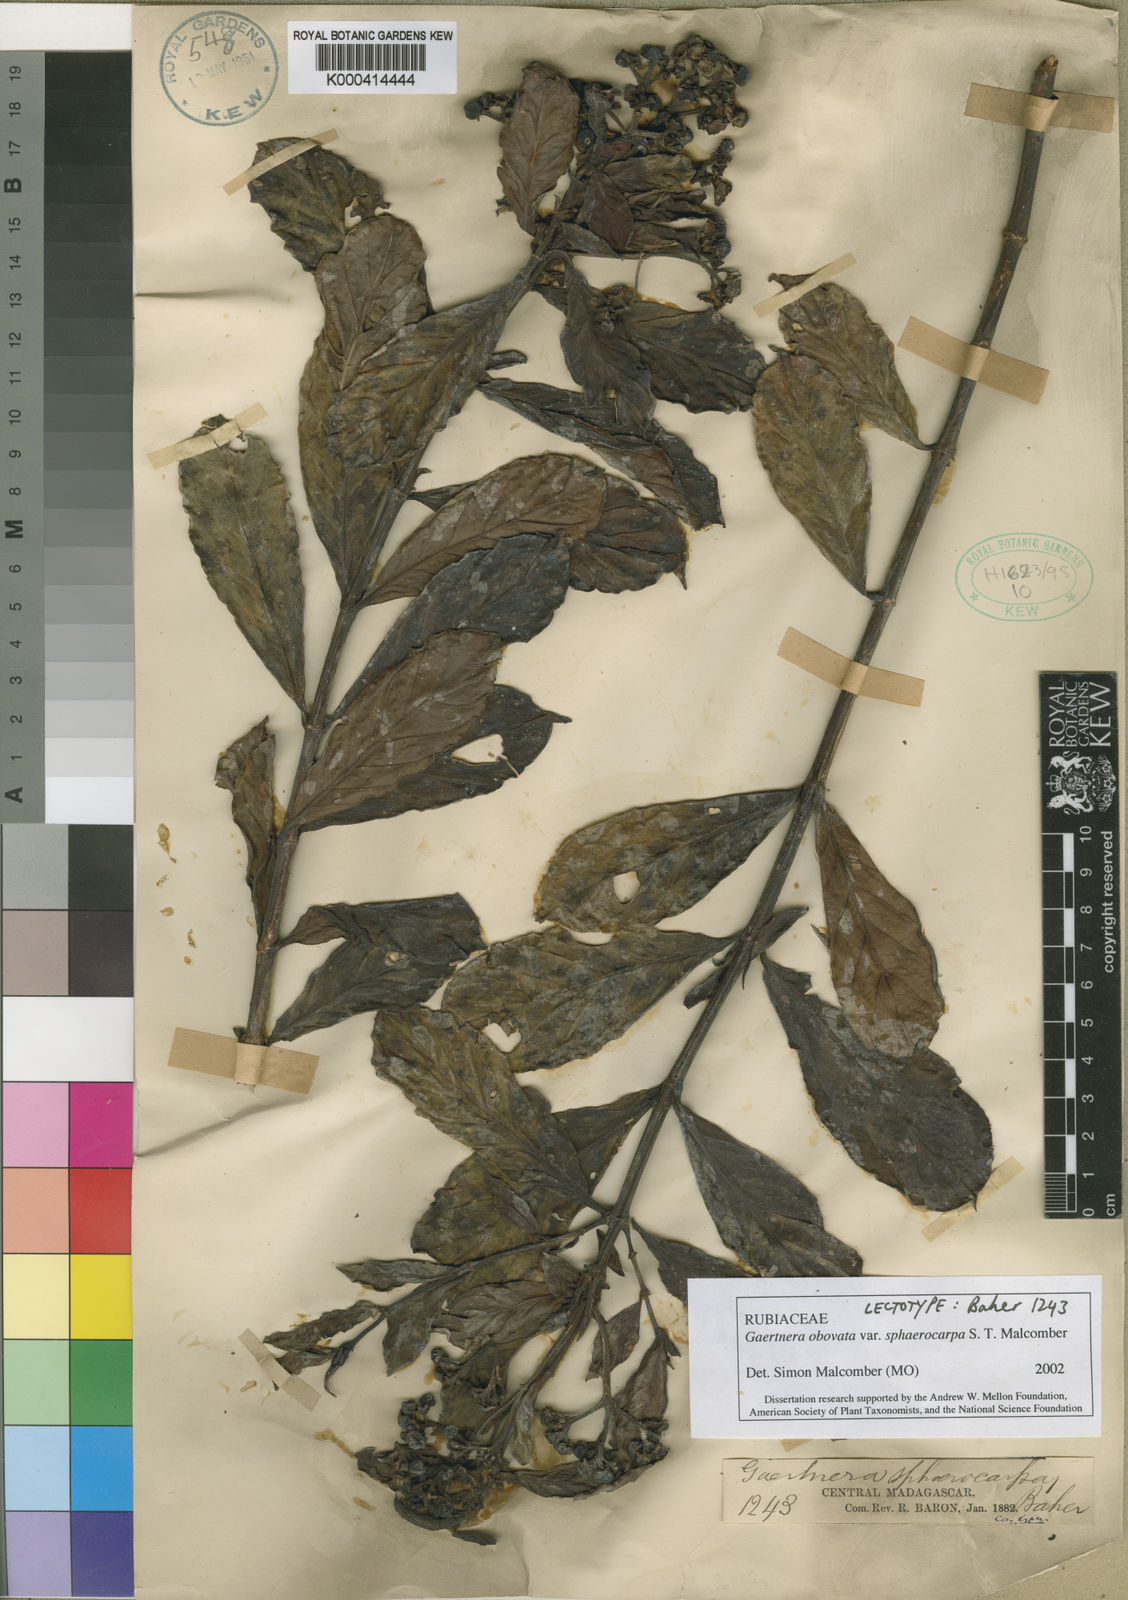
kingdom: Plantae
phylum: Tracheophyta
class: Magnoliopsida
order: Gentianales
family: Rubiaceae
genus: Gaertnera
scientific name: Gaertnera obovata
